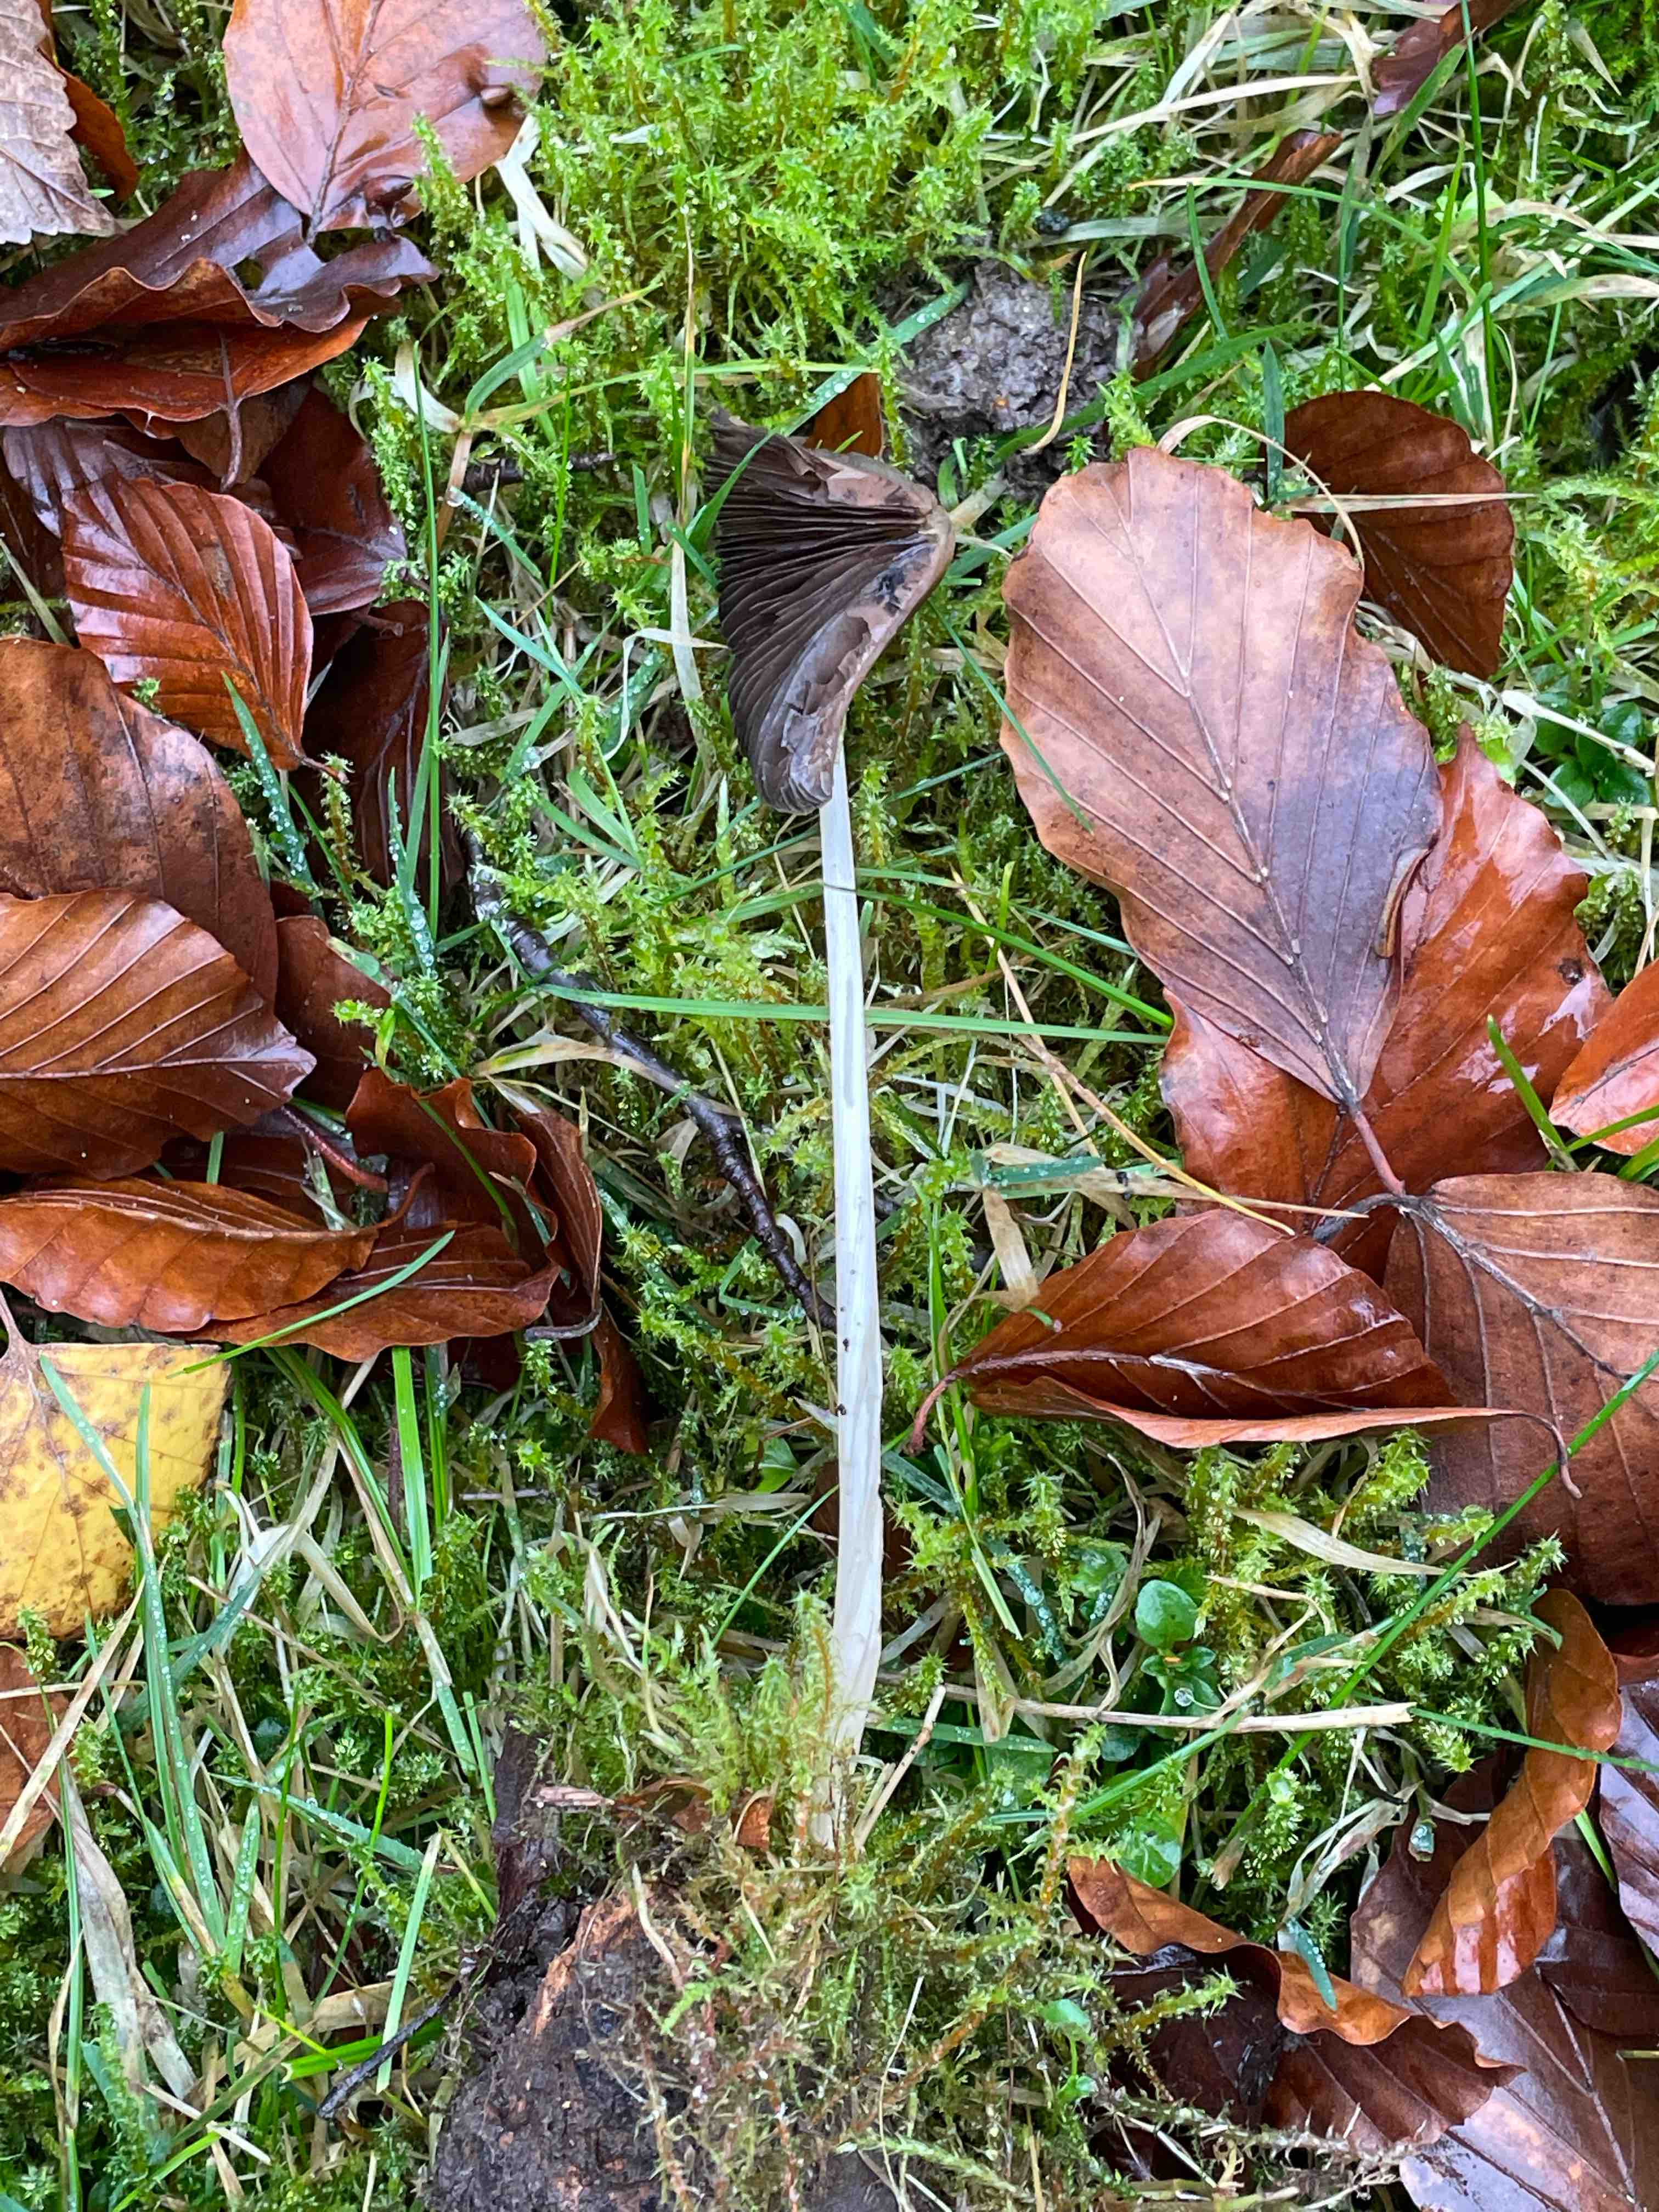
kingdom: Fungi
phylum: Basidiomycota
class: Agaricomycetes
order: Agaricales
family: Psathyrellaceae
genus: Parasola
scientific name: Parasola conopilea
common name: kegle-hjulhat
